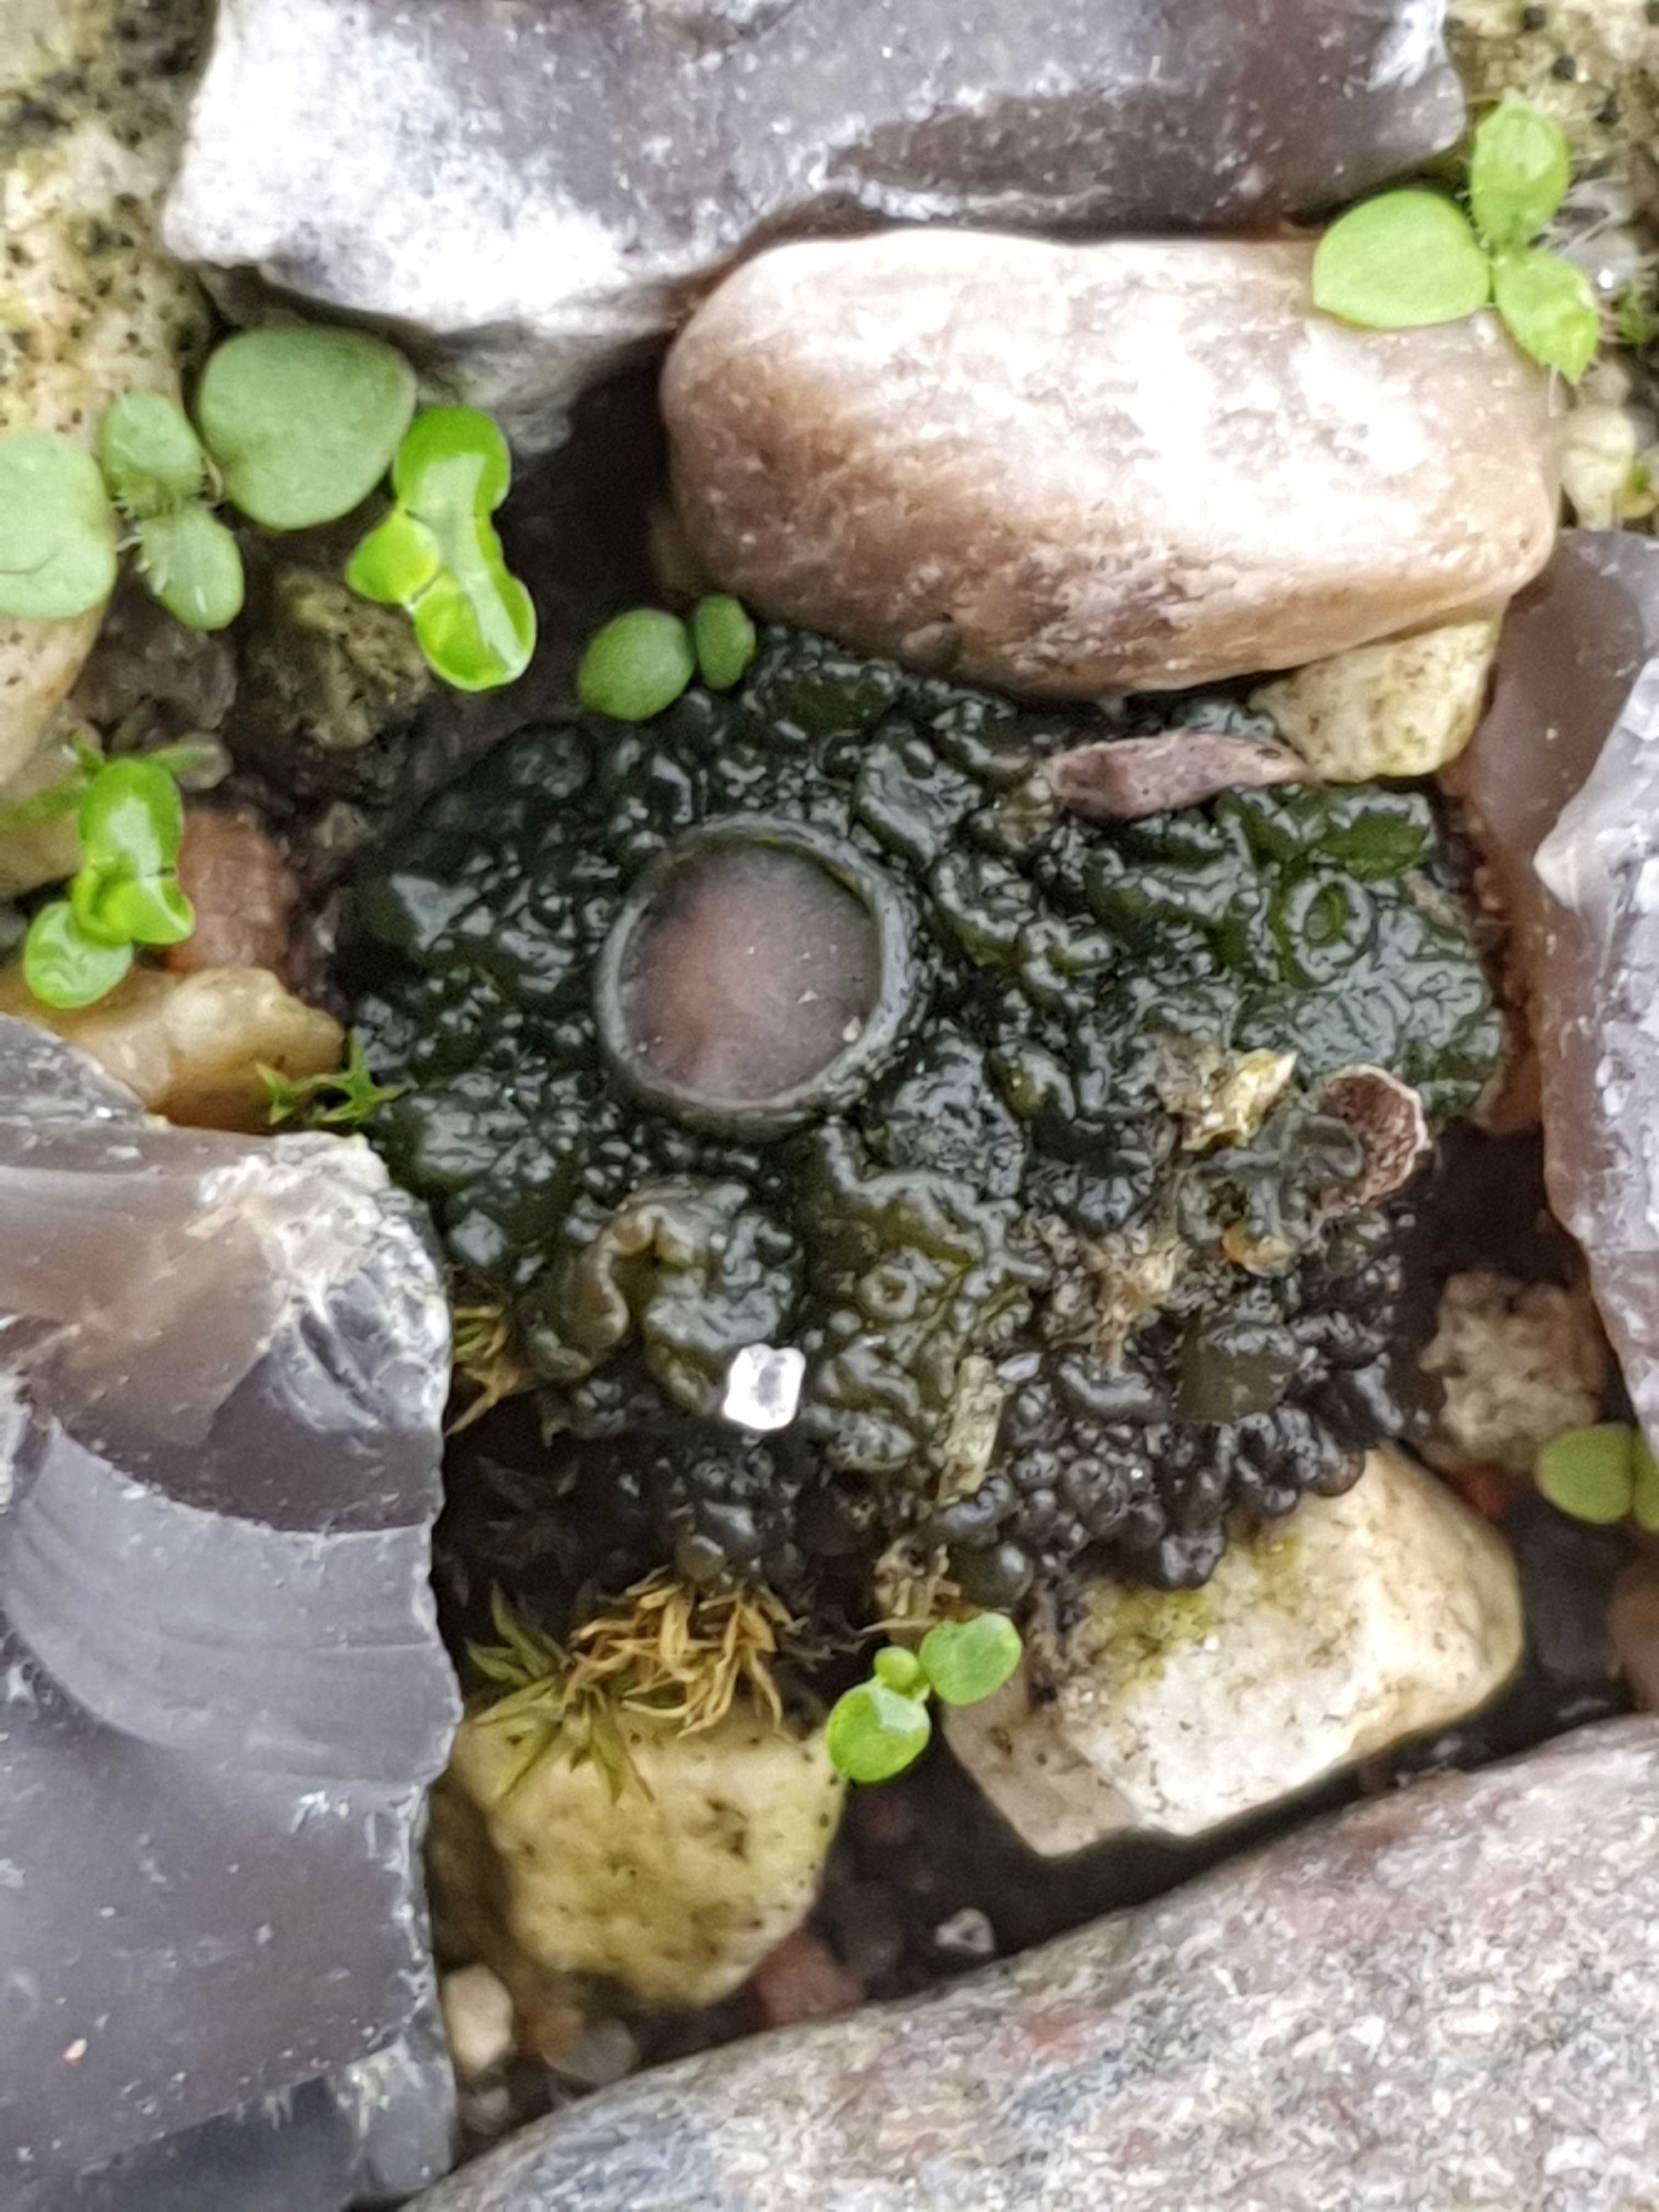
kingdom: Fungi
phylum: Ascomycota
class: Lecanoromycetes
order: Peltigerales
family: Collemataceae
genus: Enchylium
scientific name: Enchylium tenax
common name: tyk bævrelav
